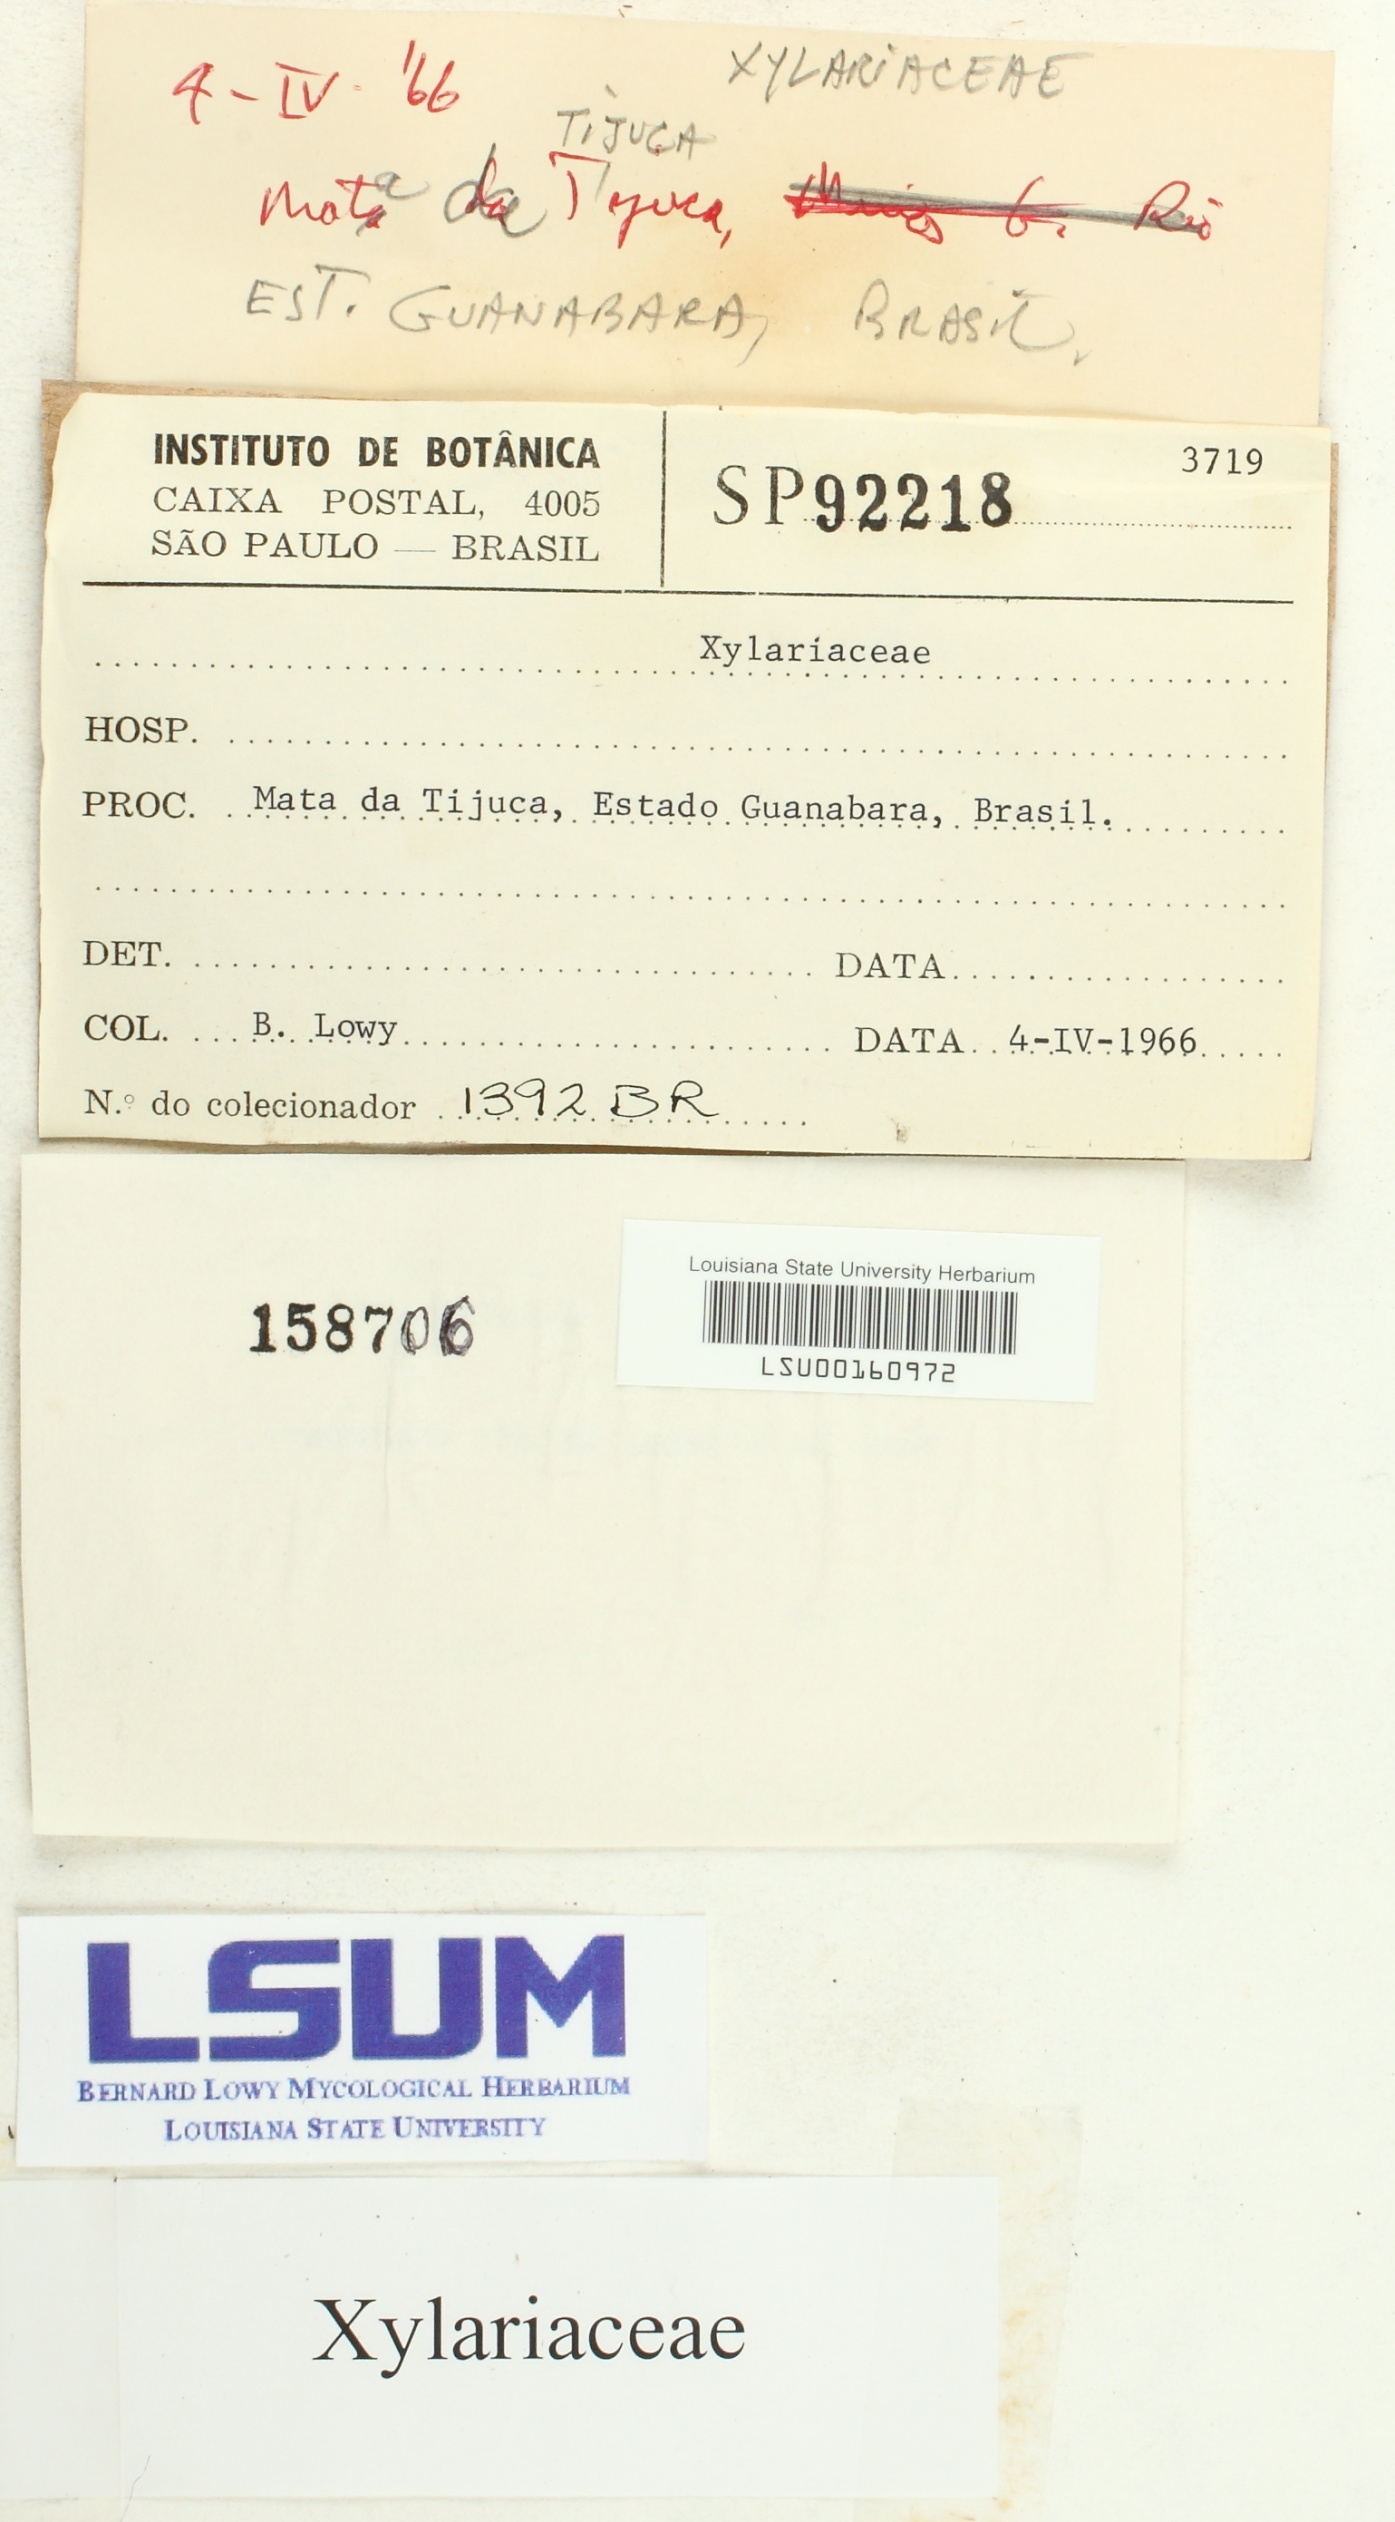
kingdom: Fungi
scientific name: Fungi
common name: Fungi
